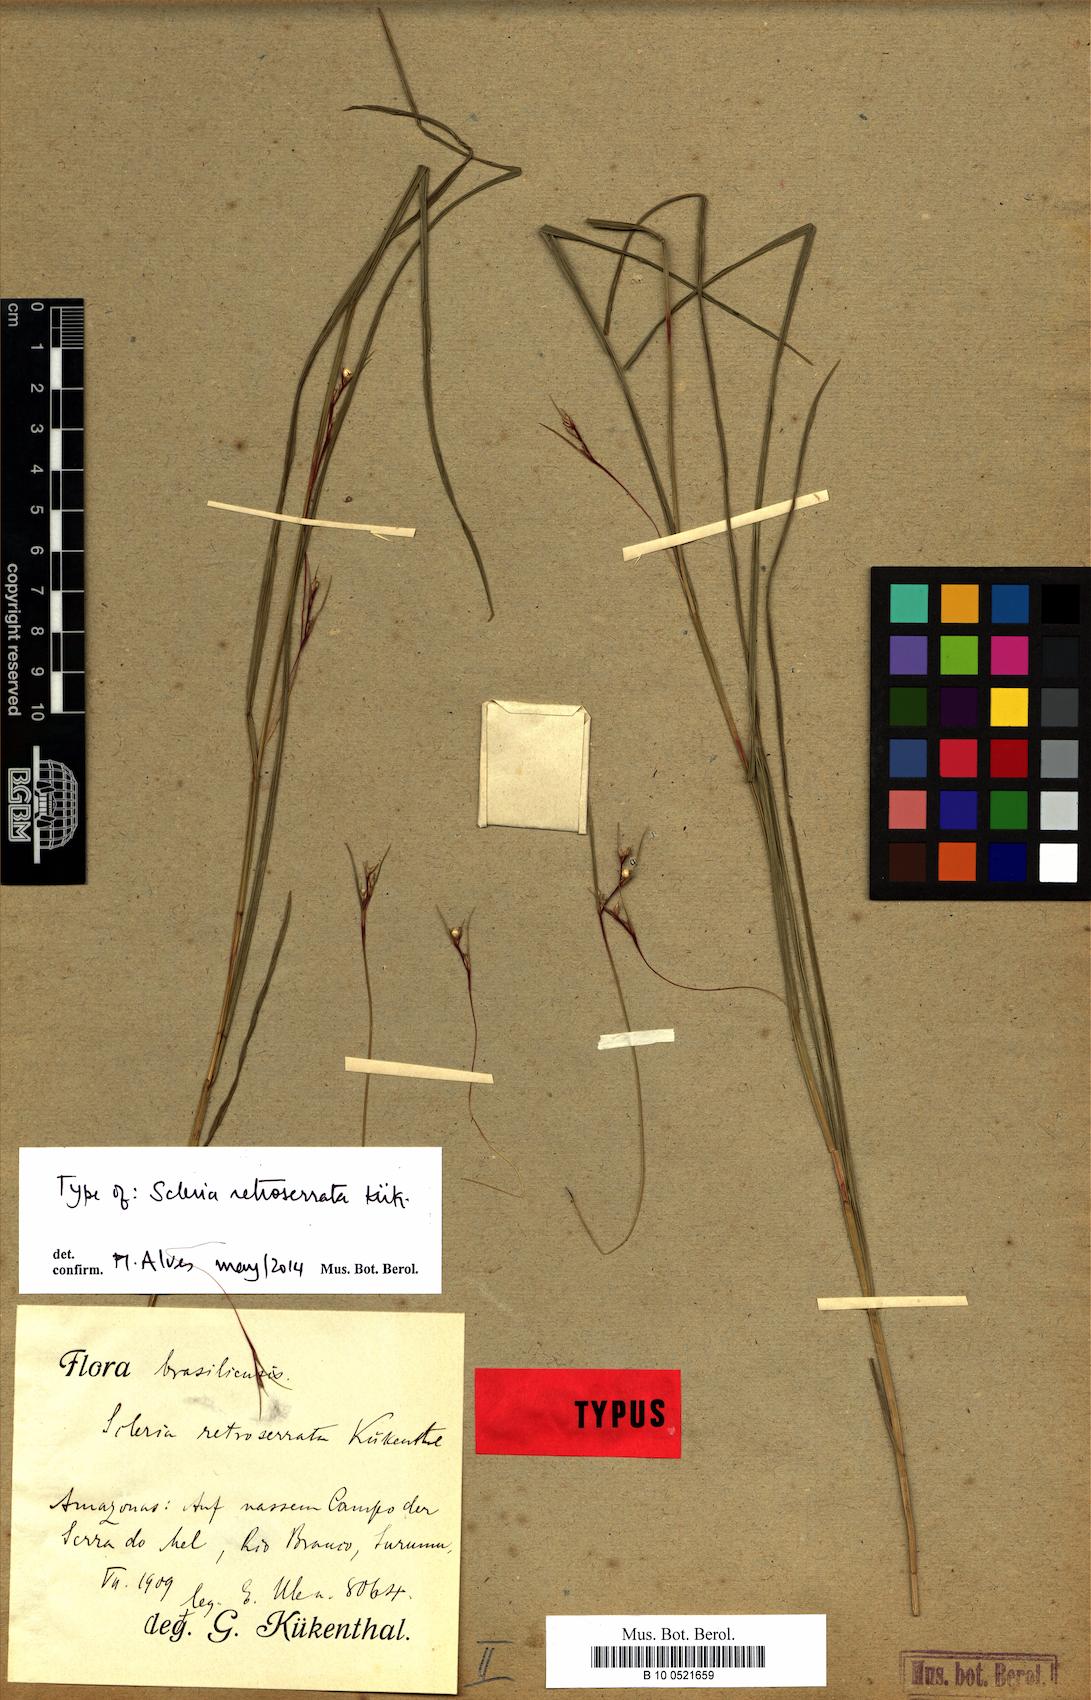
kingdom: Plantae
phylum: Tracheophyta
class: Liliopsida
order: Poales
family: Cyperaceae
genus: Scleria
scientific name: Scleria gracillima
